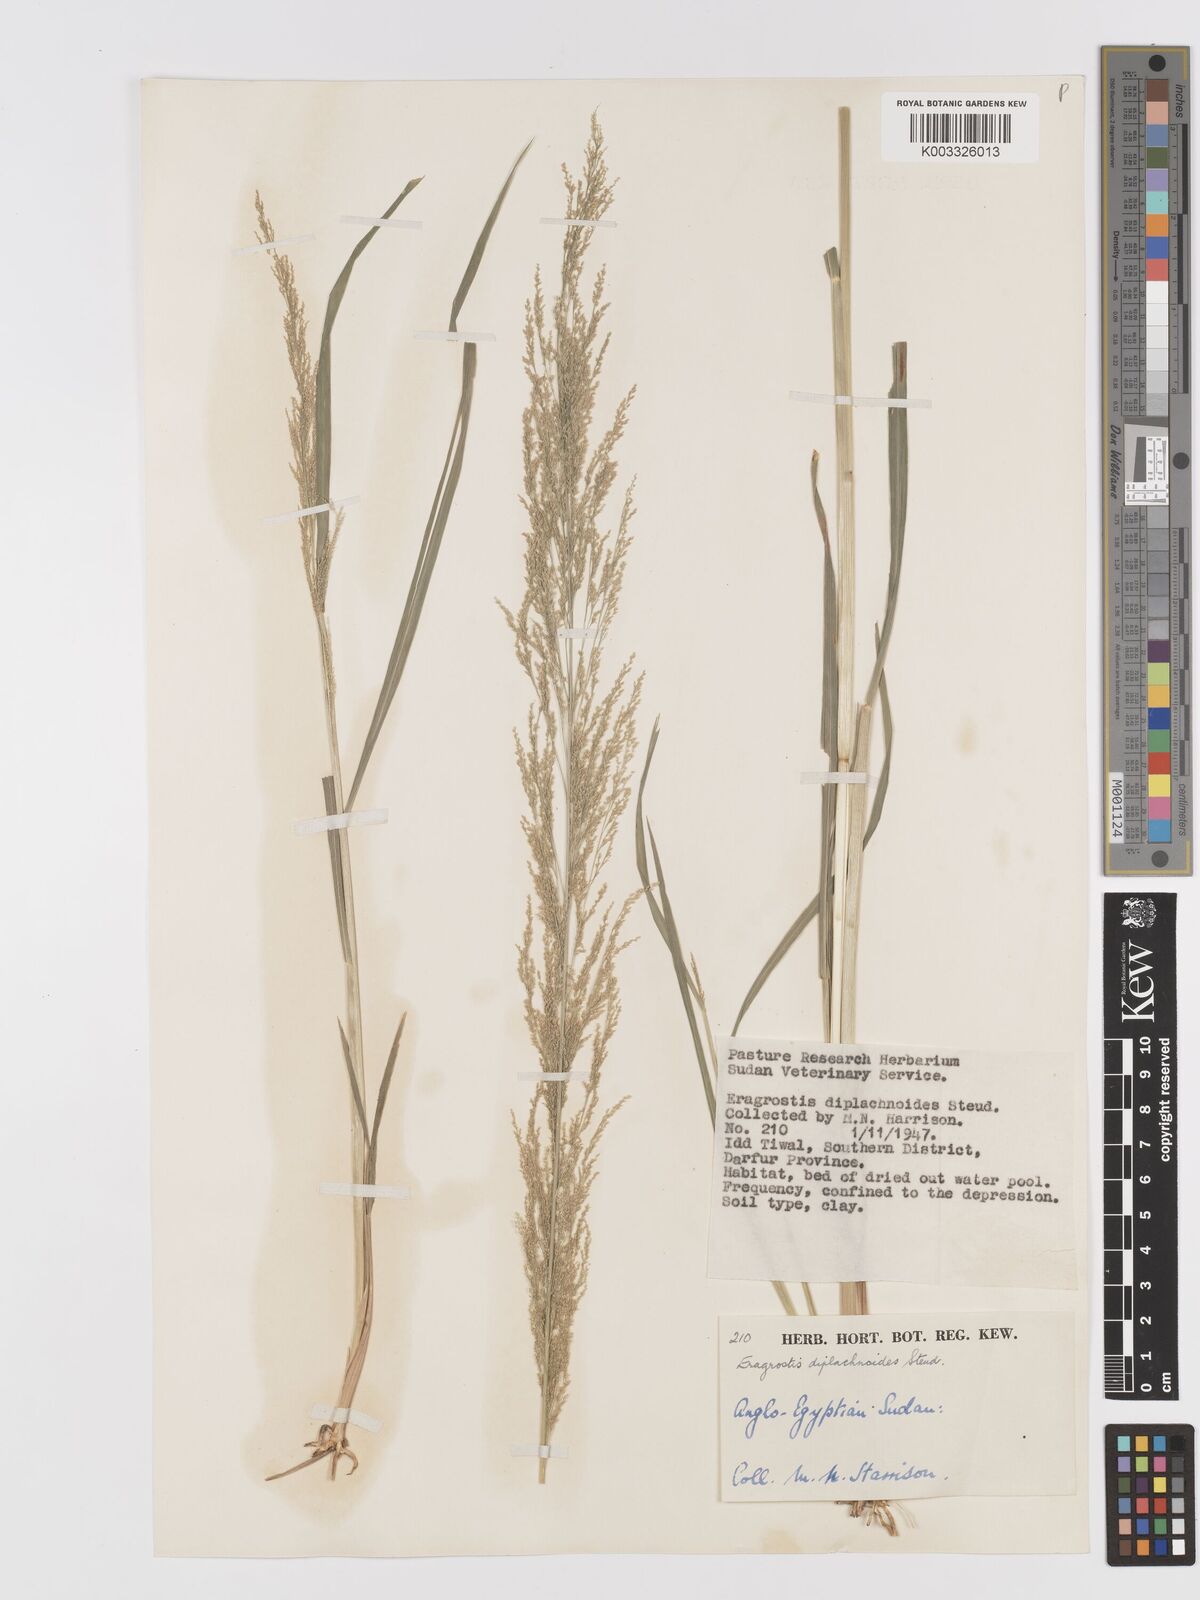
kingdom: Plantae
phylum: Tracheophyta
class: Liliopsida
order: Poales
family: Poaceae
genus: Eragrostis
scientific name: Eragrostis japonica
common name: Pond lovegrass
